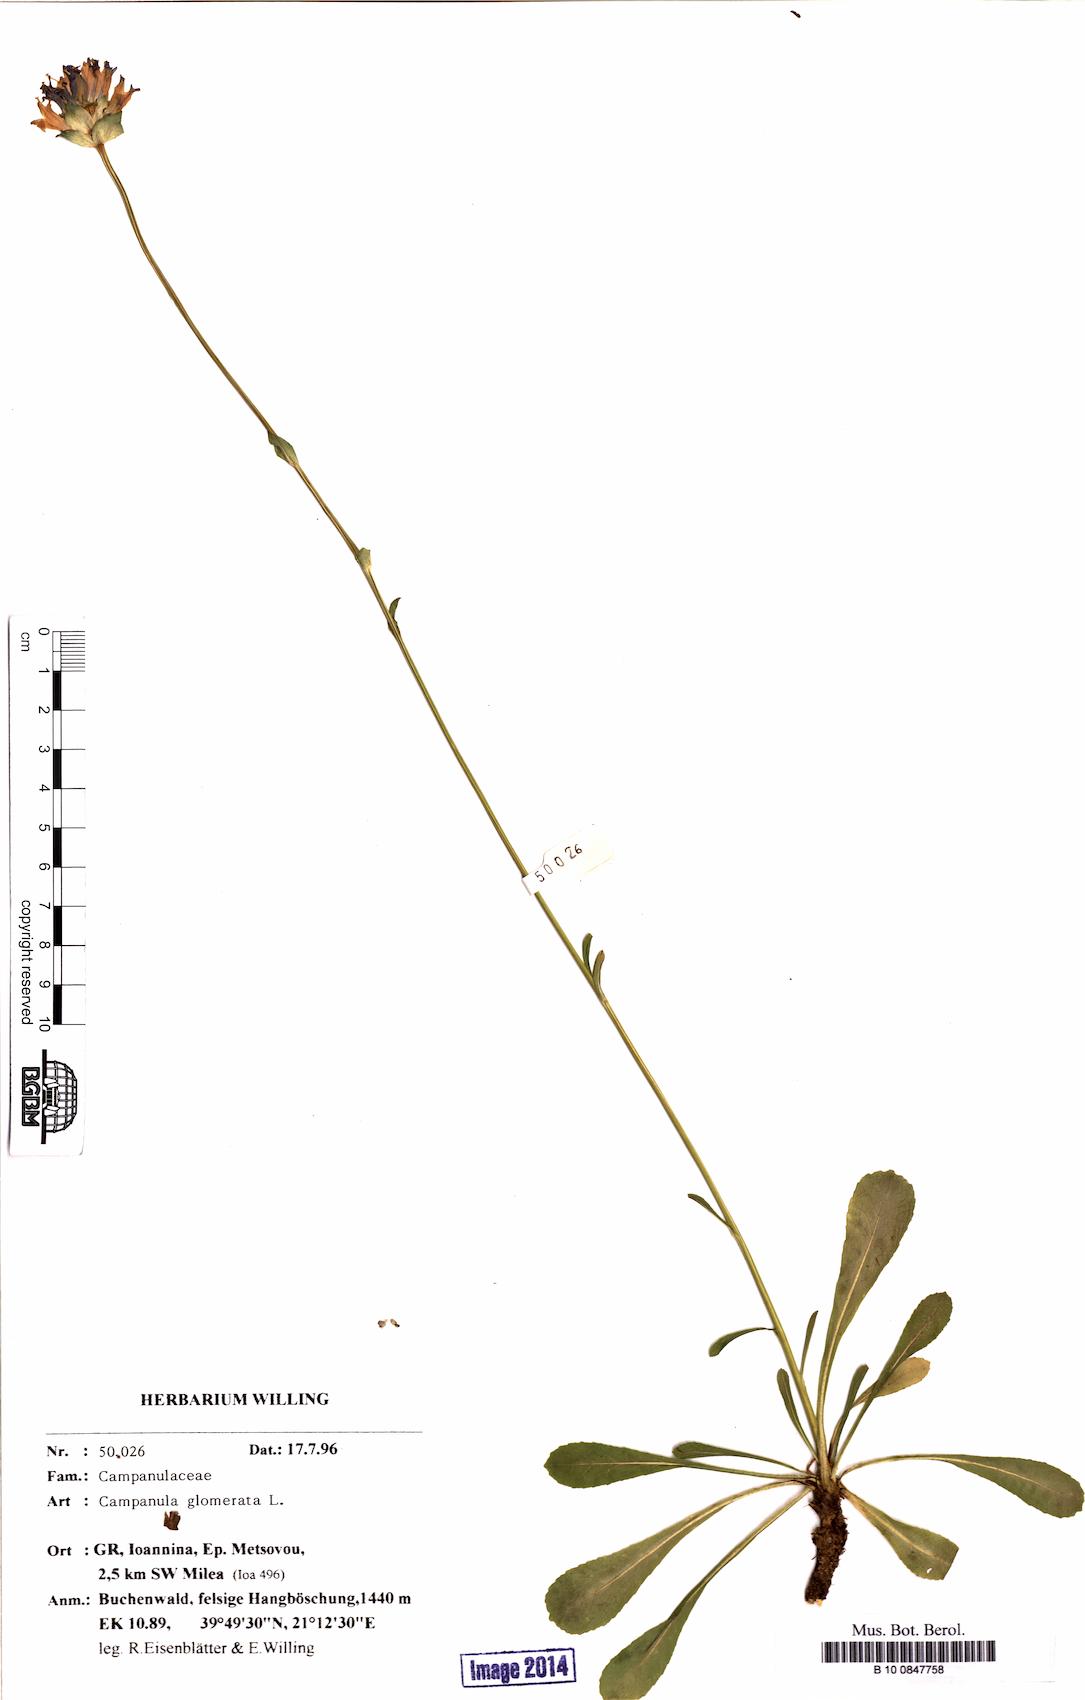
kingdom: Plantae
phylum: Tracheophyta
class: Magnoliopsida
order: Asterales
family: Campanulaceae
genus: Campanula
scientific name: Campanula glomerata
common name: Clustered bellflower
